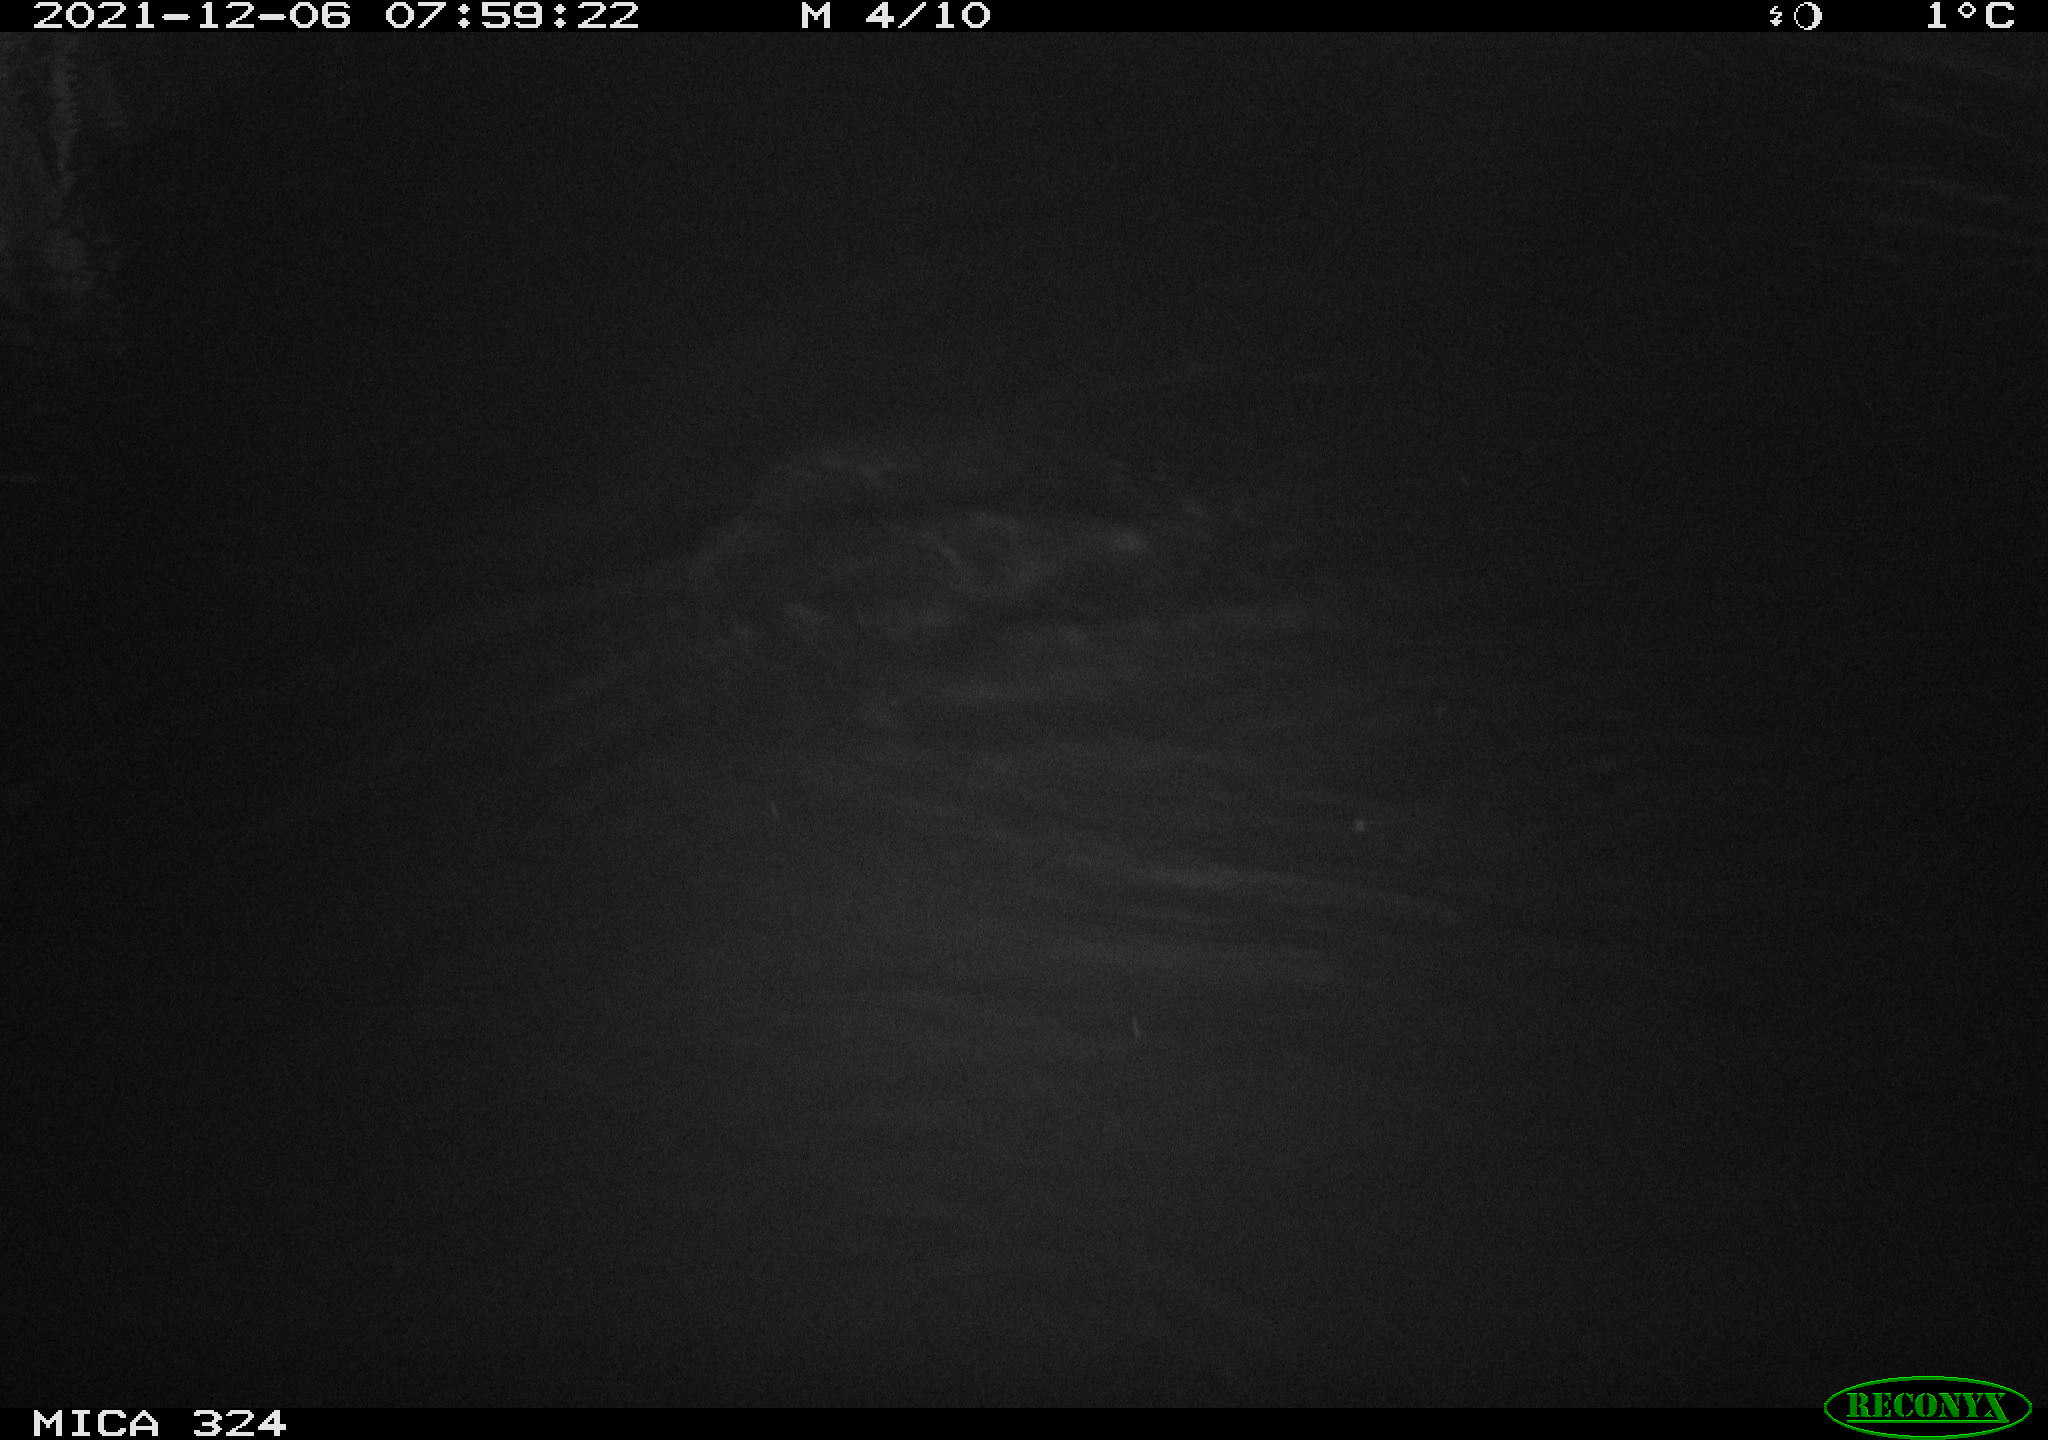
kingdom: Animalia
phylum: Chordata
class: Mammalia
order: Rodentia
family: Cricetidae
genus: Ondatra
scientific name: Ondatra zibethicus
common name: Muskrat
